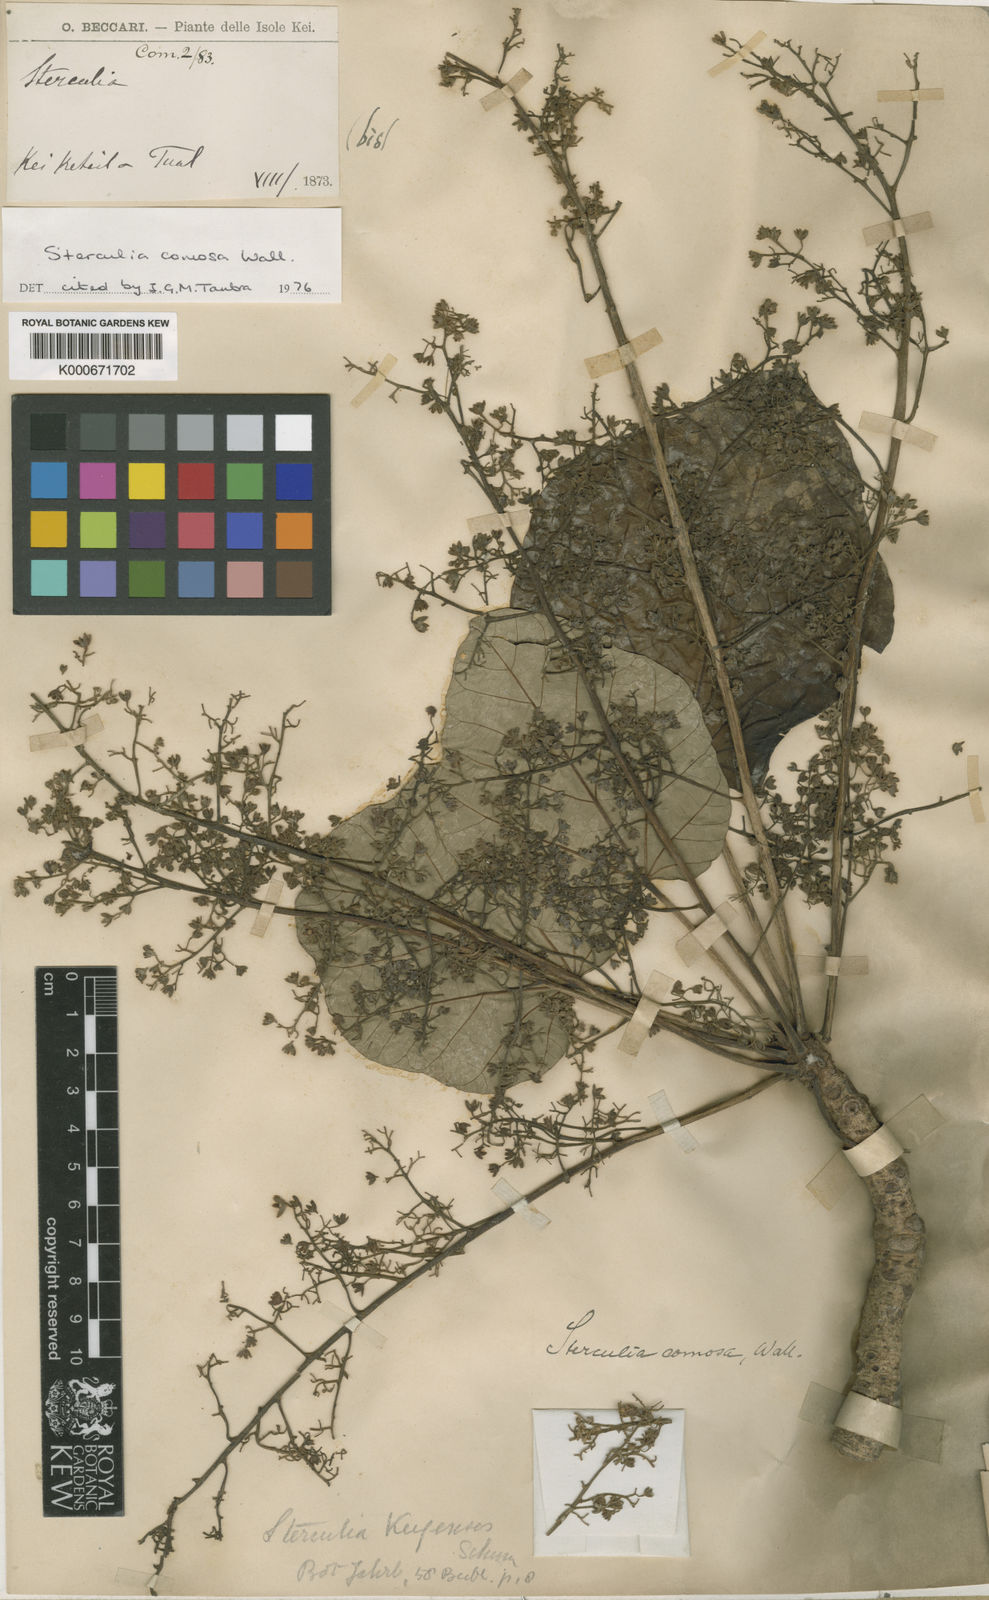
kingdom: Plantae
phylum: Tracheophyta
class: Magnoliopsida
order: Malvales
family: Malvaceae
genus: Sterculia
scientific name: Sterculia comosa
